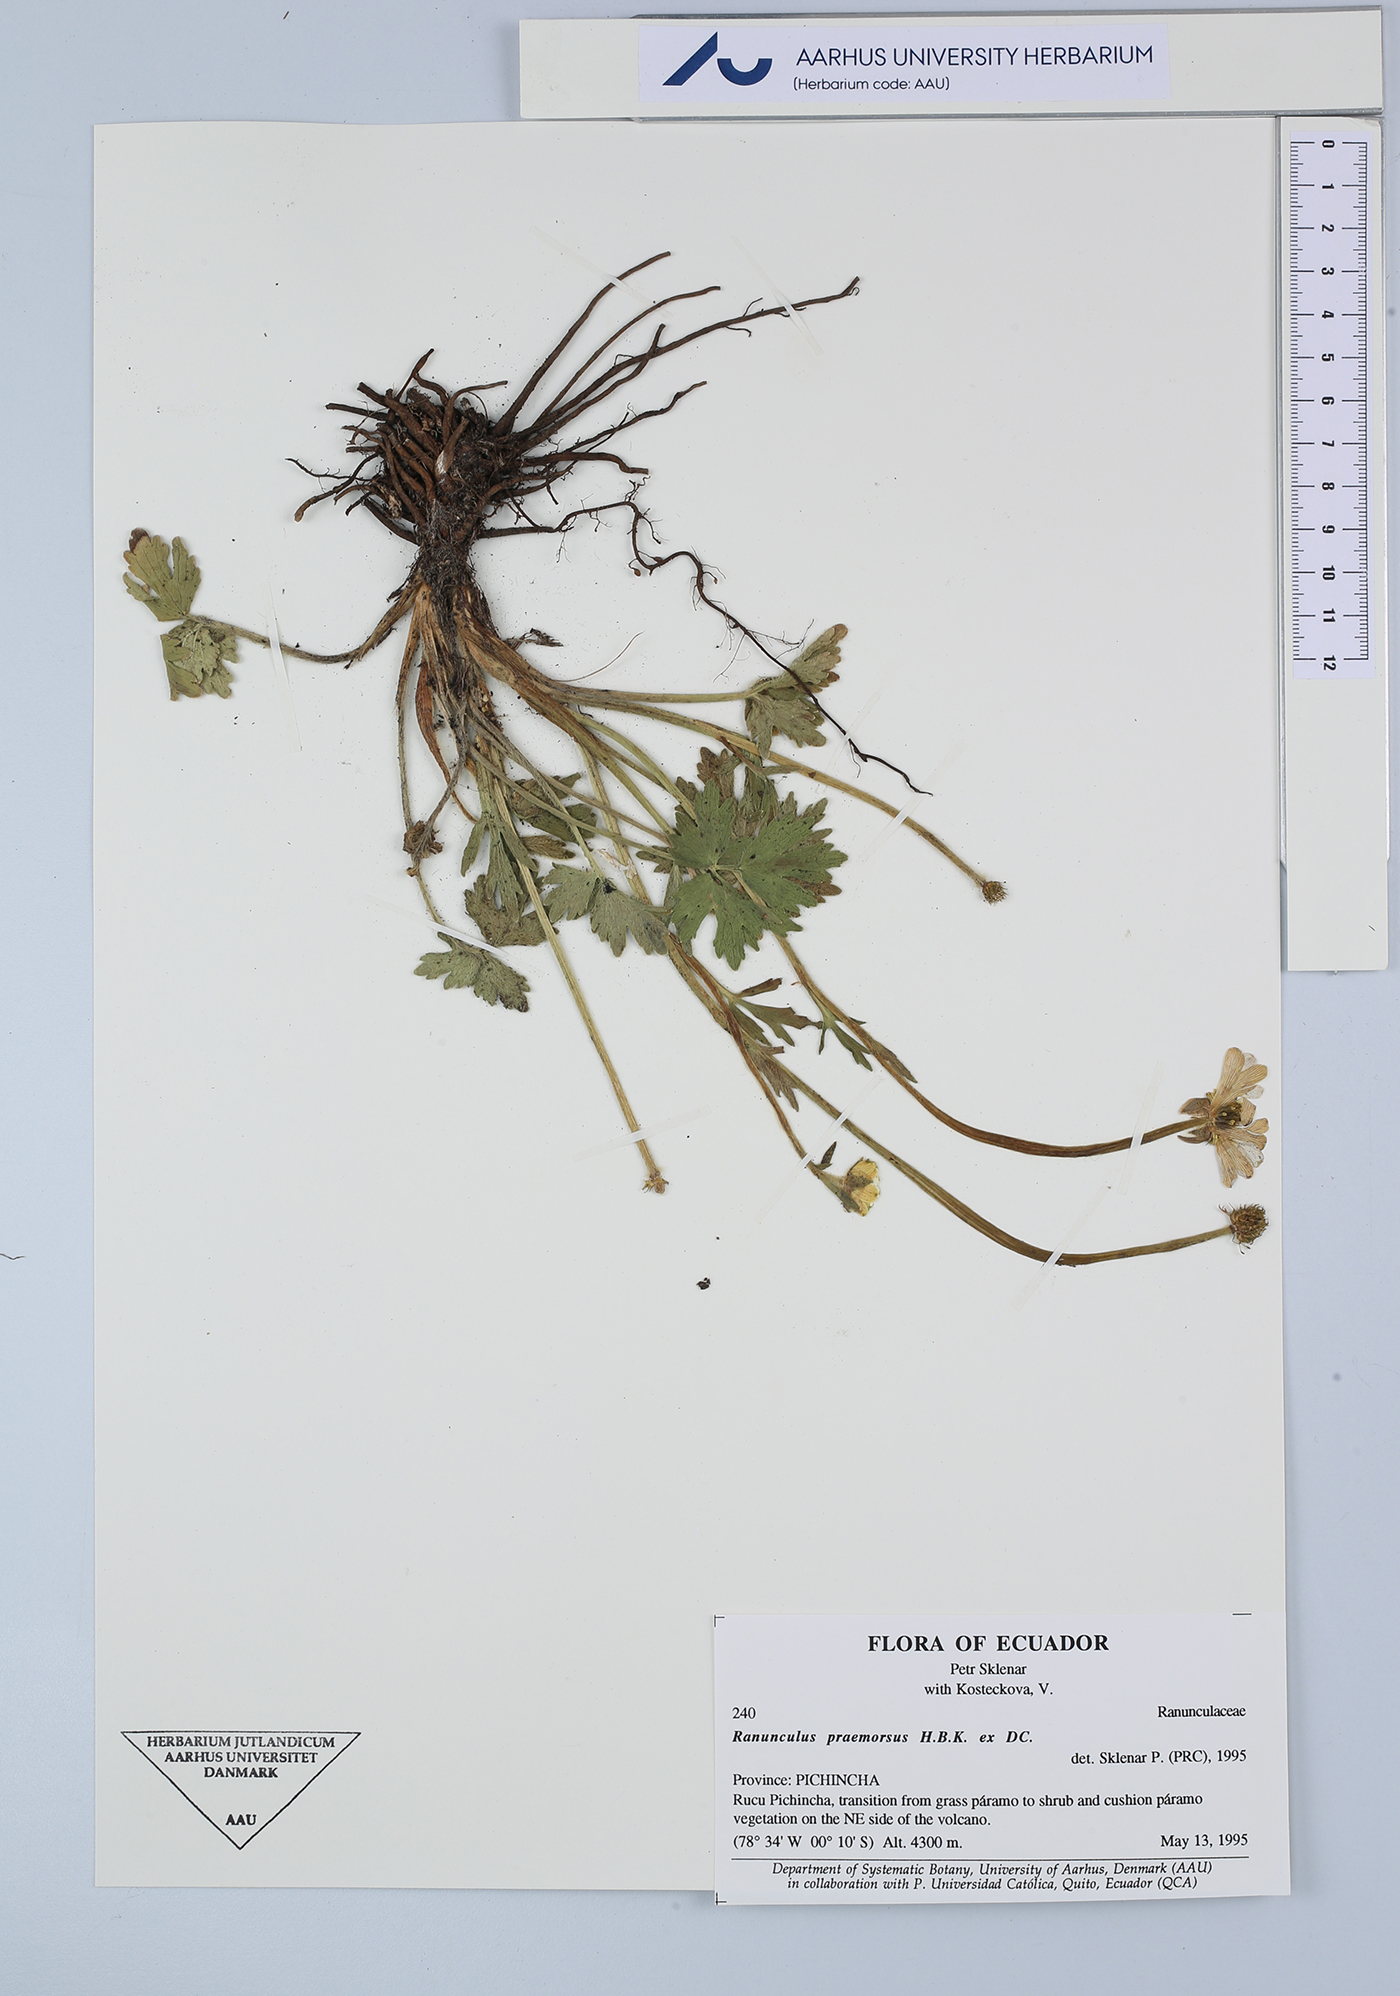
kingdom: Plantae
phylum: Tracheophyta
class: Magnoliopsida
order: Ranunculales
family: Ranunculaceae
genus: Ranunculus
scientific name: Ranunculus praemorsus
